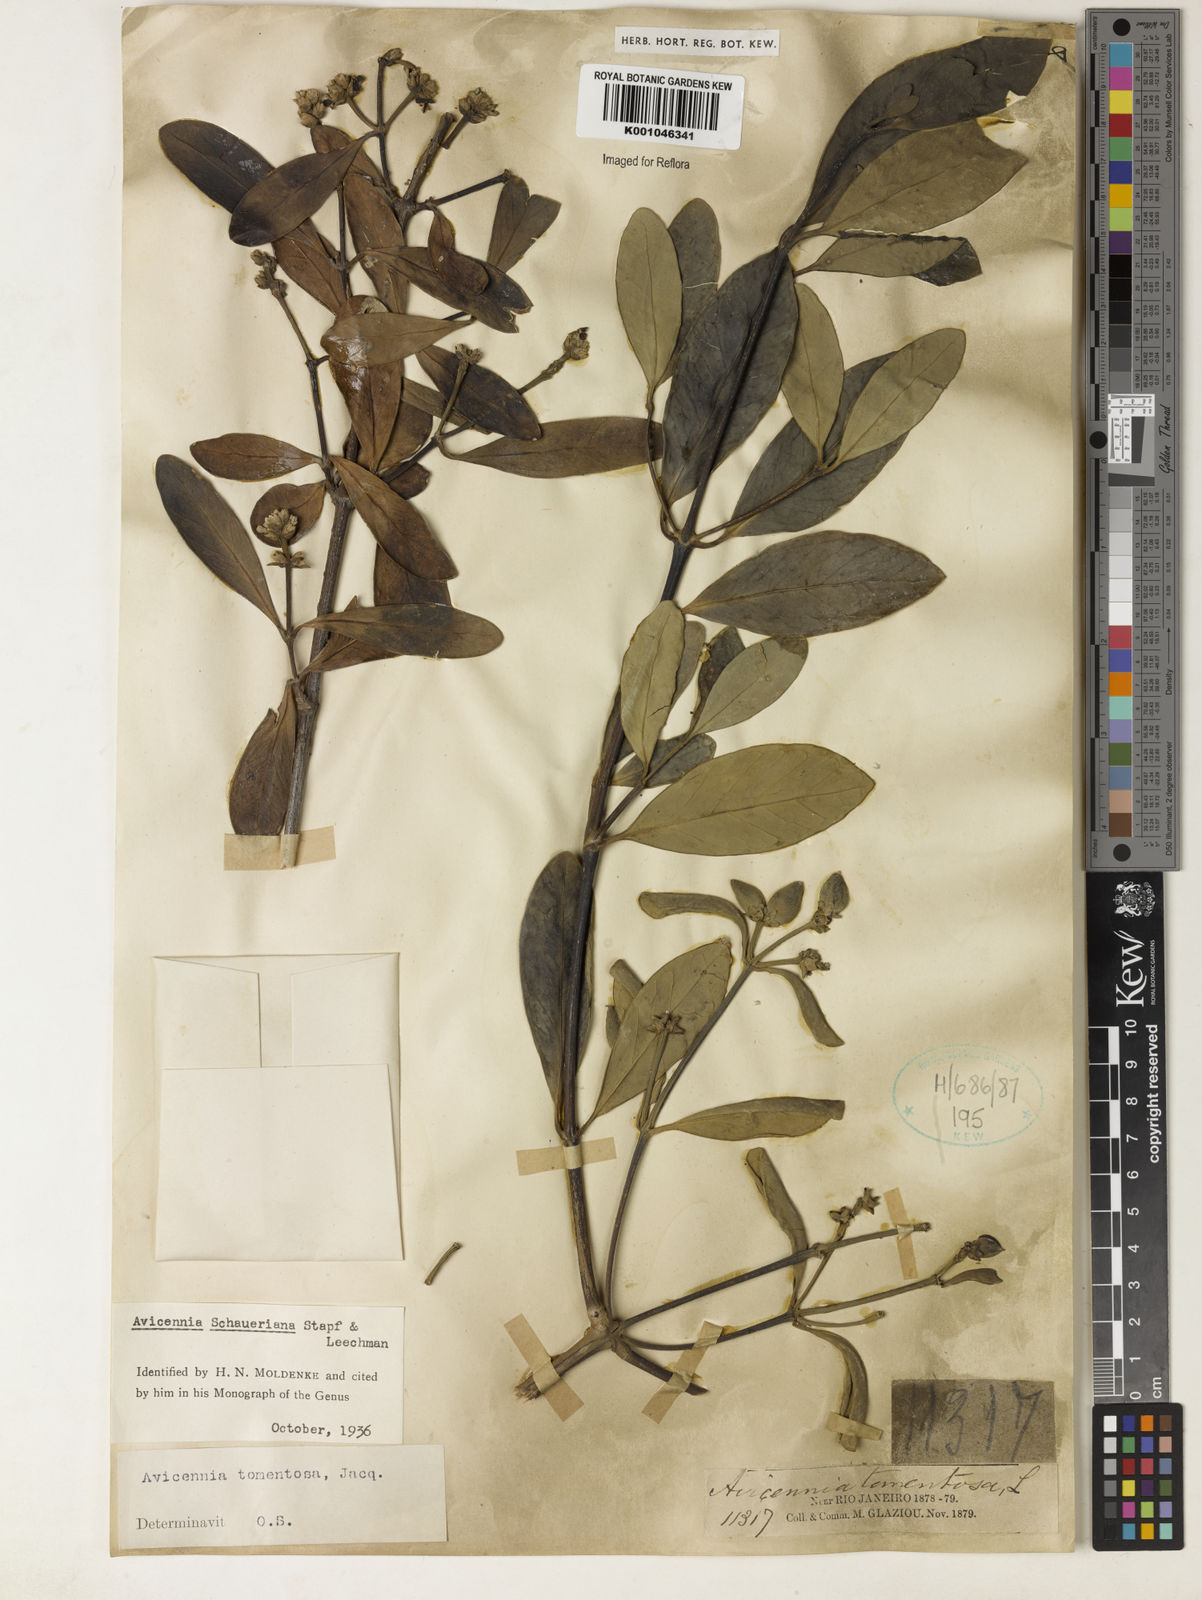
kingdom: Plantae
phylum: Tracheophyta
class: Magnoliopsida
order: Lamiales
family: Acanthaceae
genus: Avicennia
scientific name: Avicennia schaueriana
